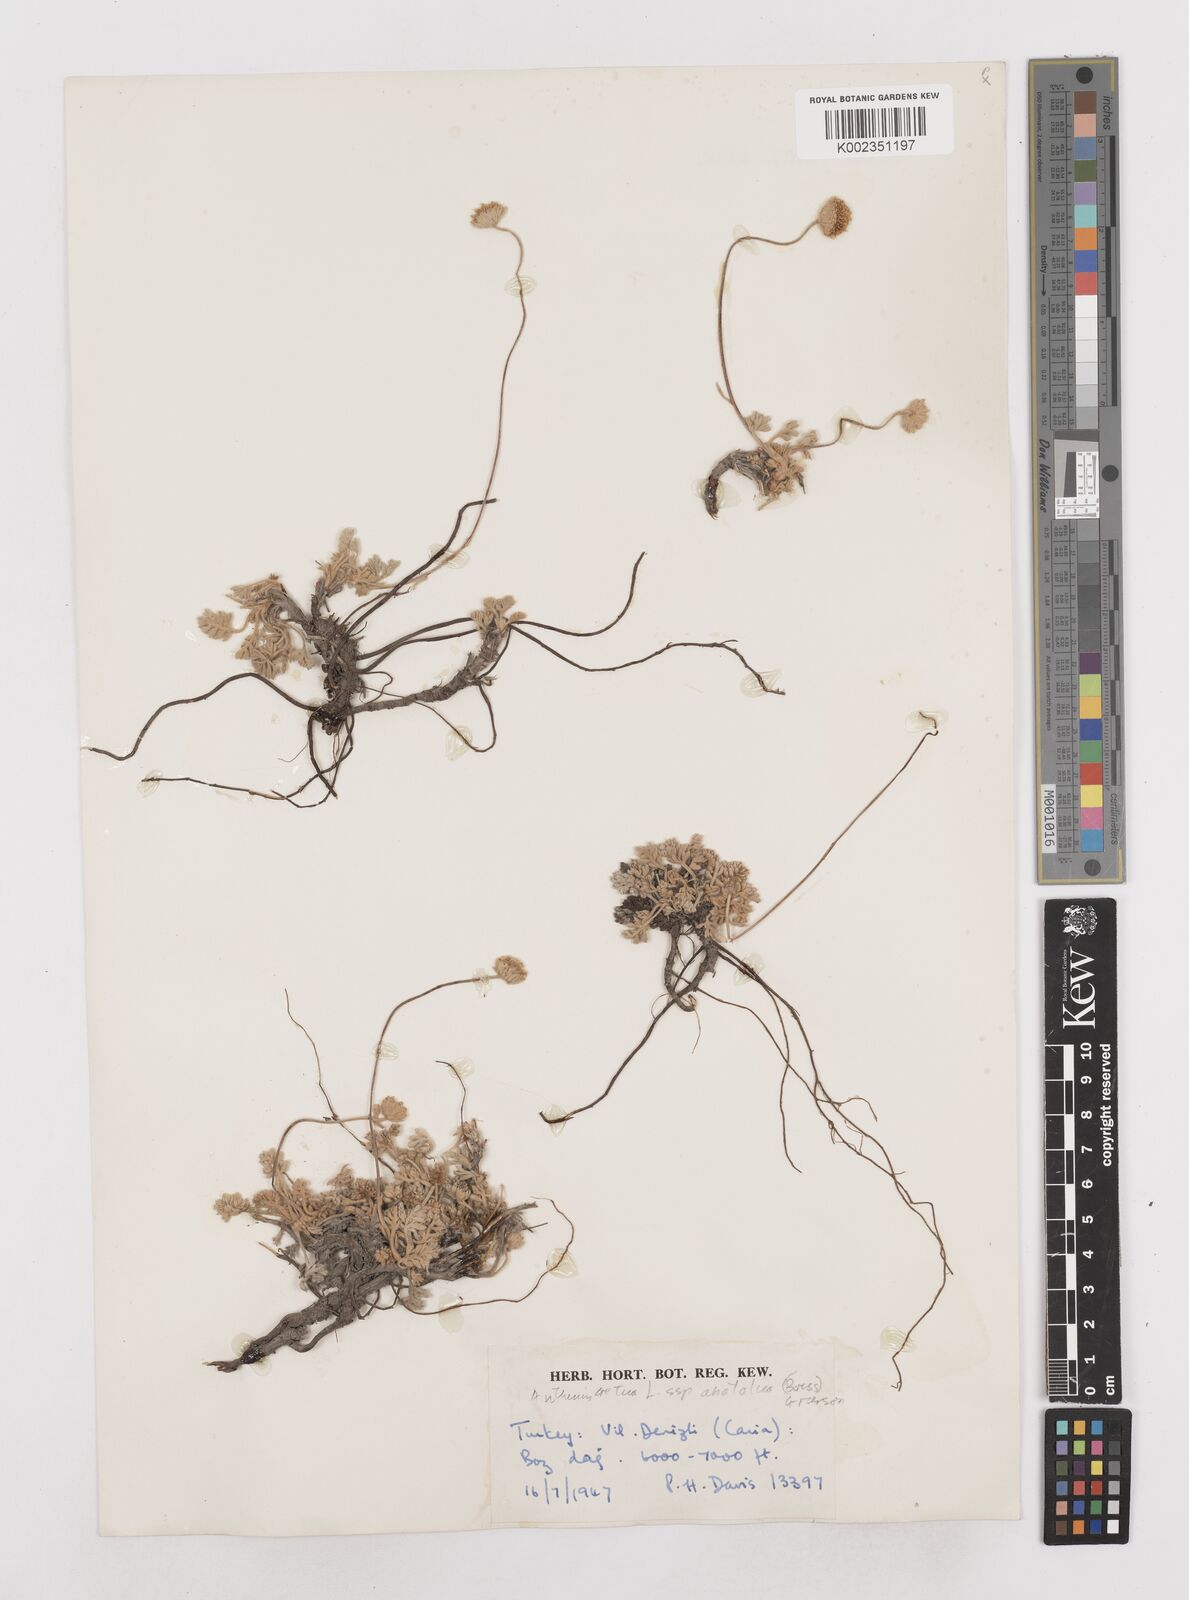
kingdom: Plantae
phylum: Tracheophyta
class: Magnoliopsida
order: Asterales
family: Asteraceae
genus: Anthemis
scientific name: Anthemis cretica
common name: Mountain dog-daisy
